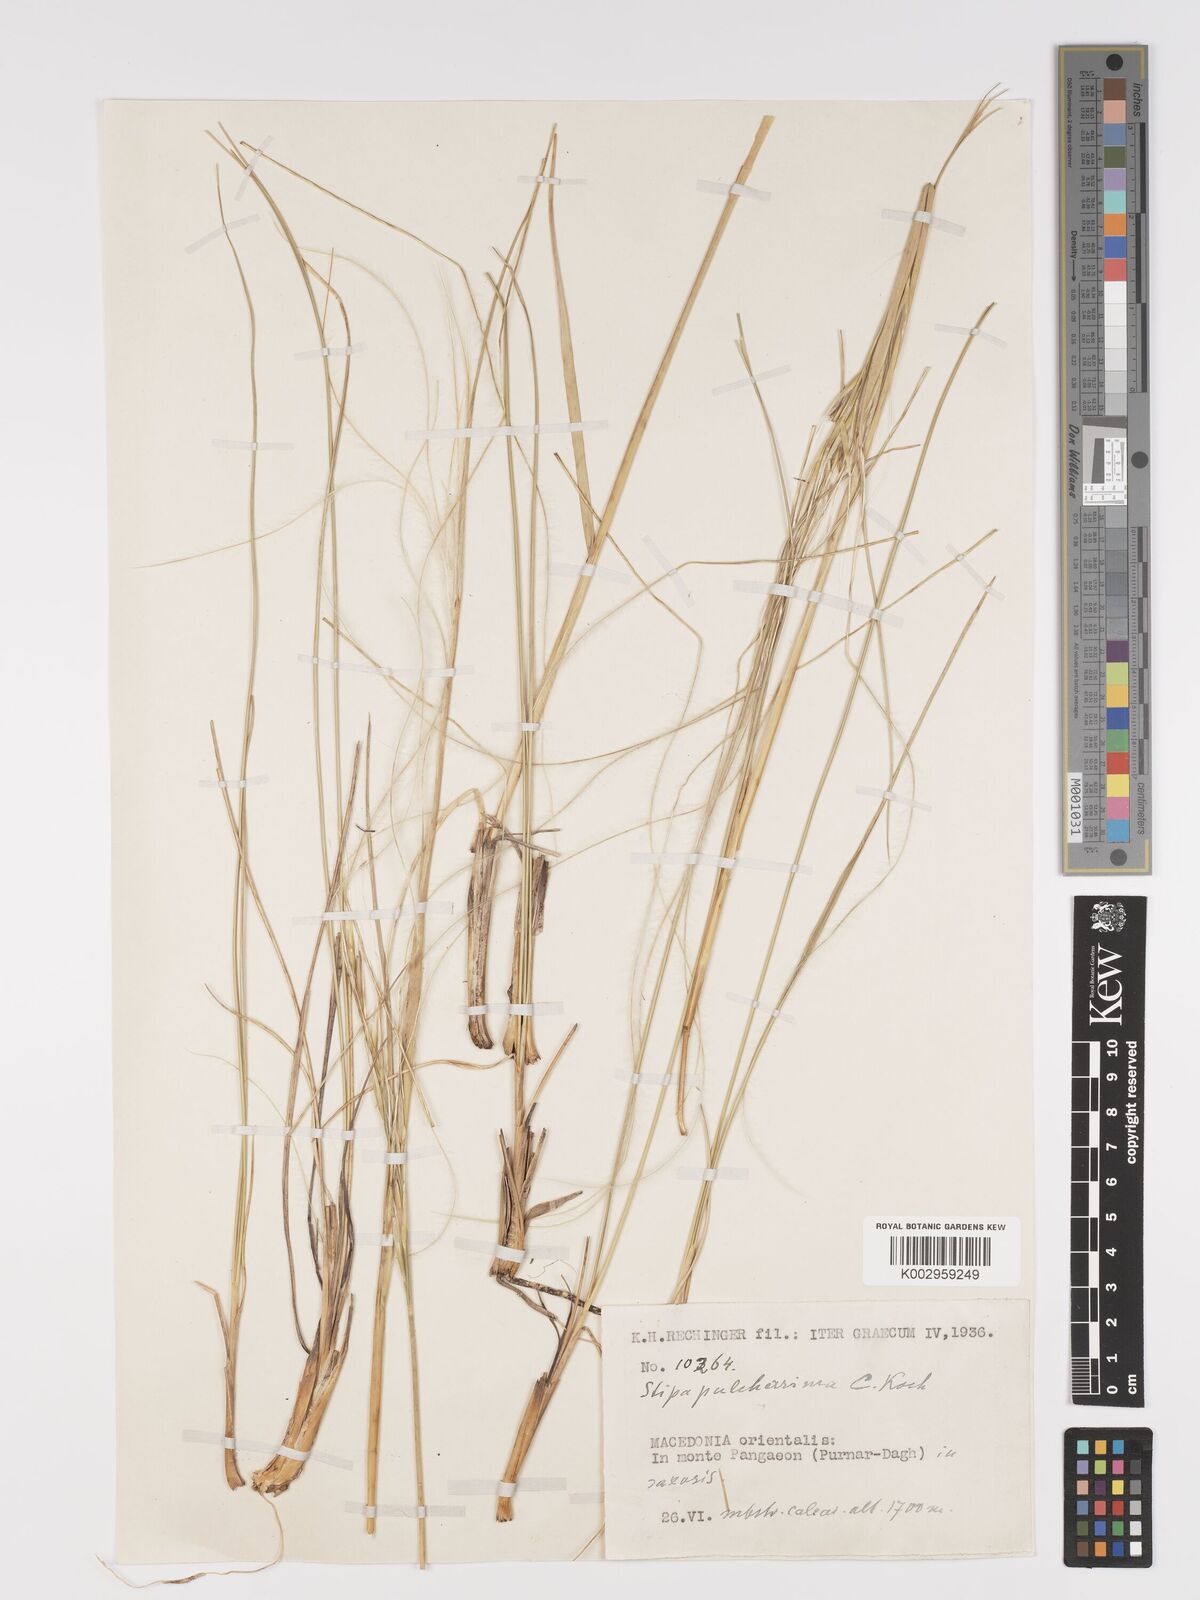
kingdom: Plantae
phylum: Tracheophyta
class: Liliopsida
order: Poales
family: Poaceae
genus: Stipa
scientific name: Stipa pulcherrima
